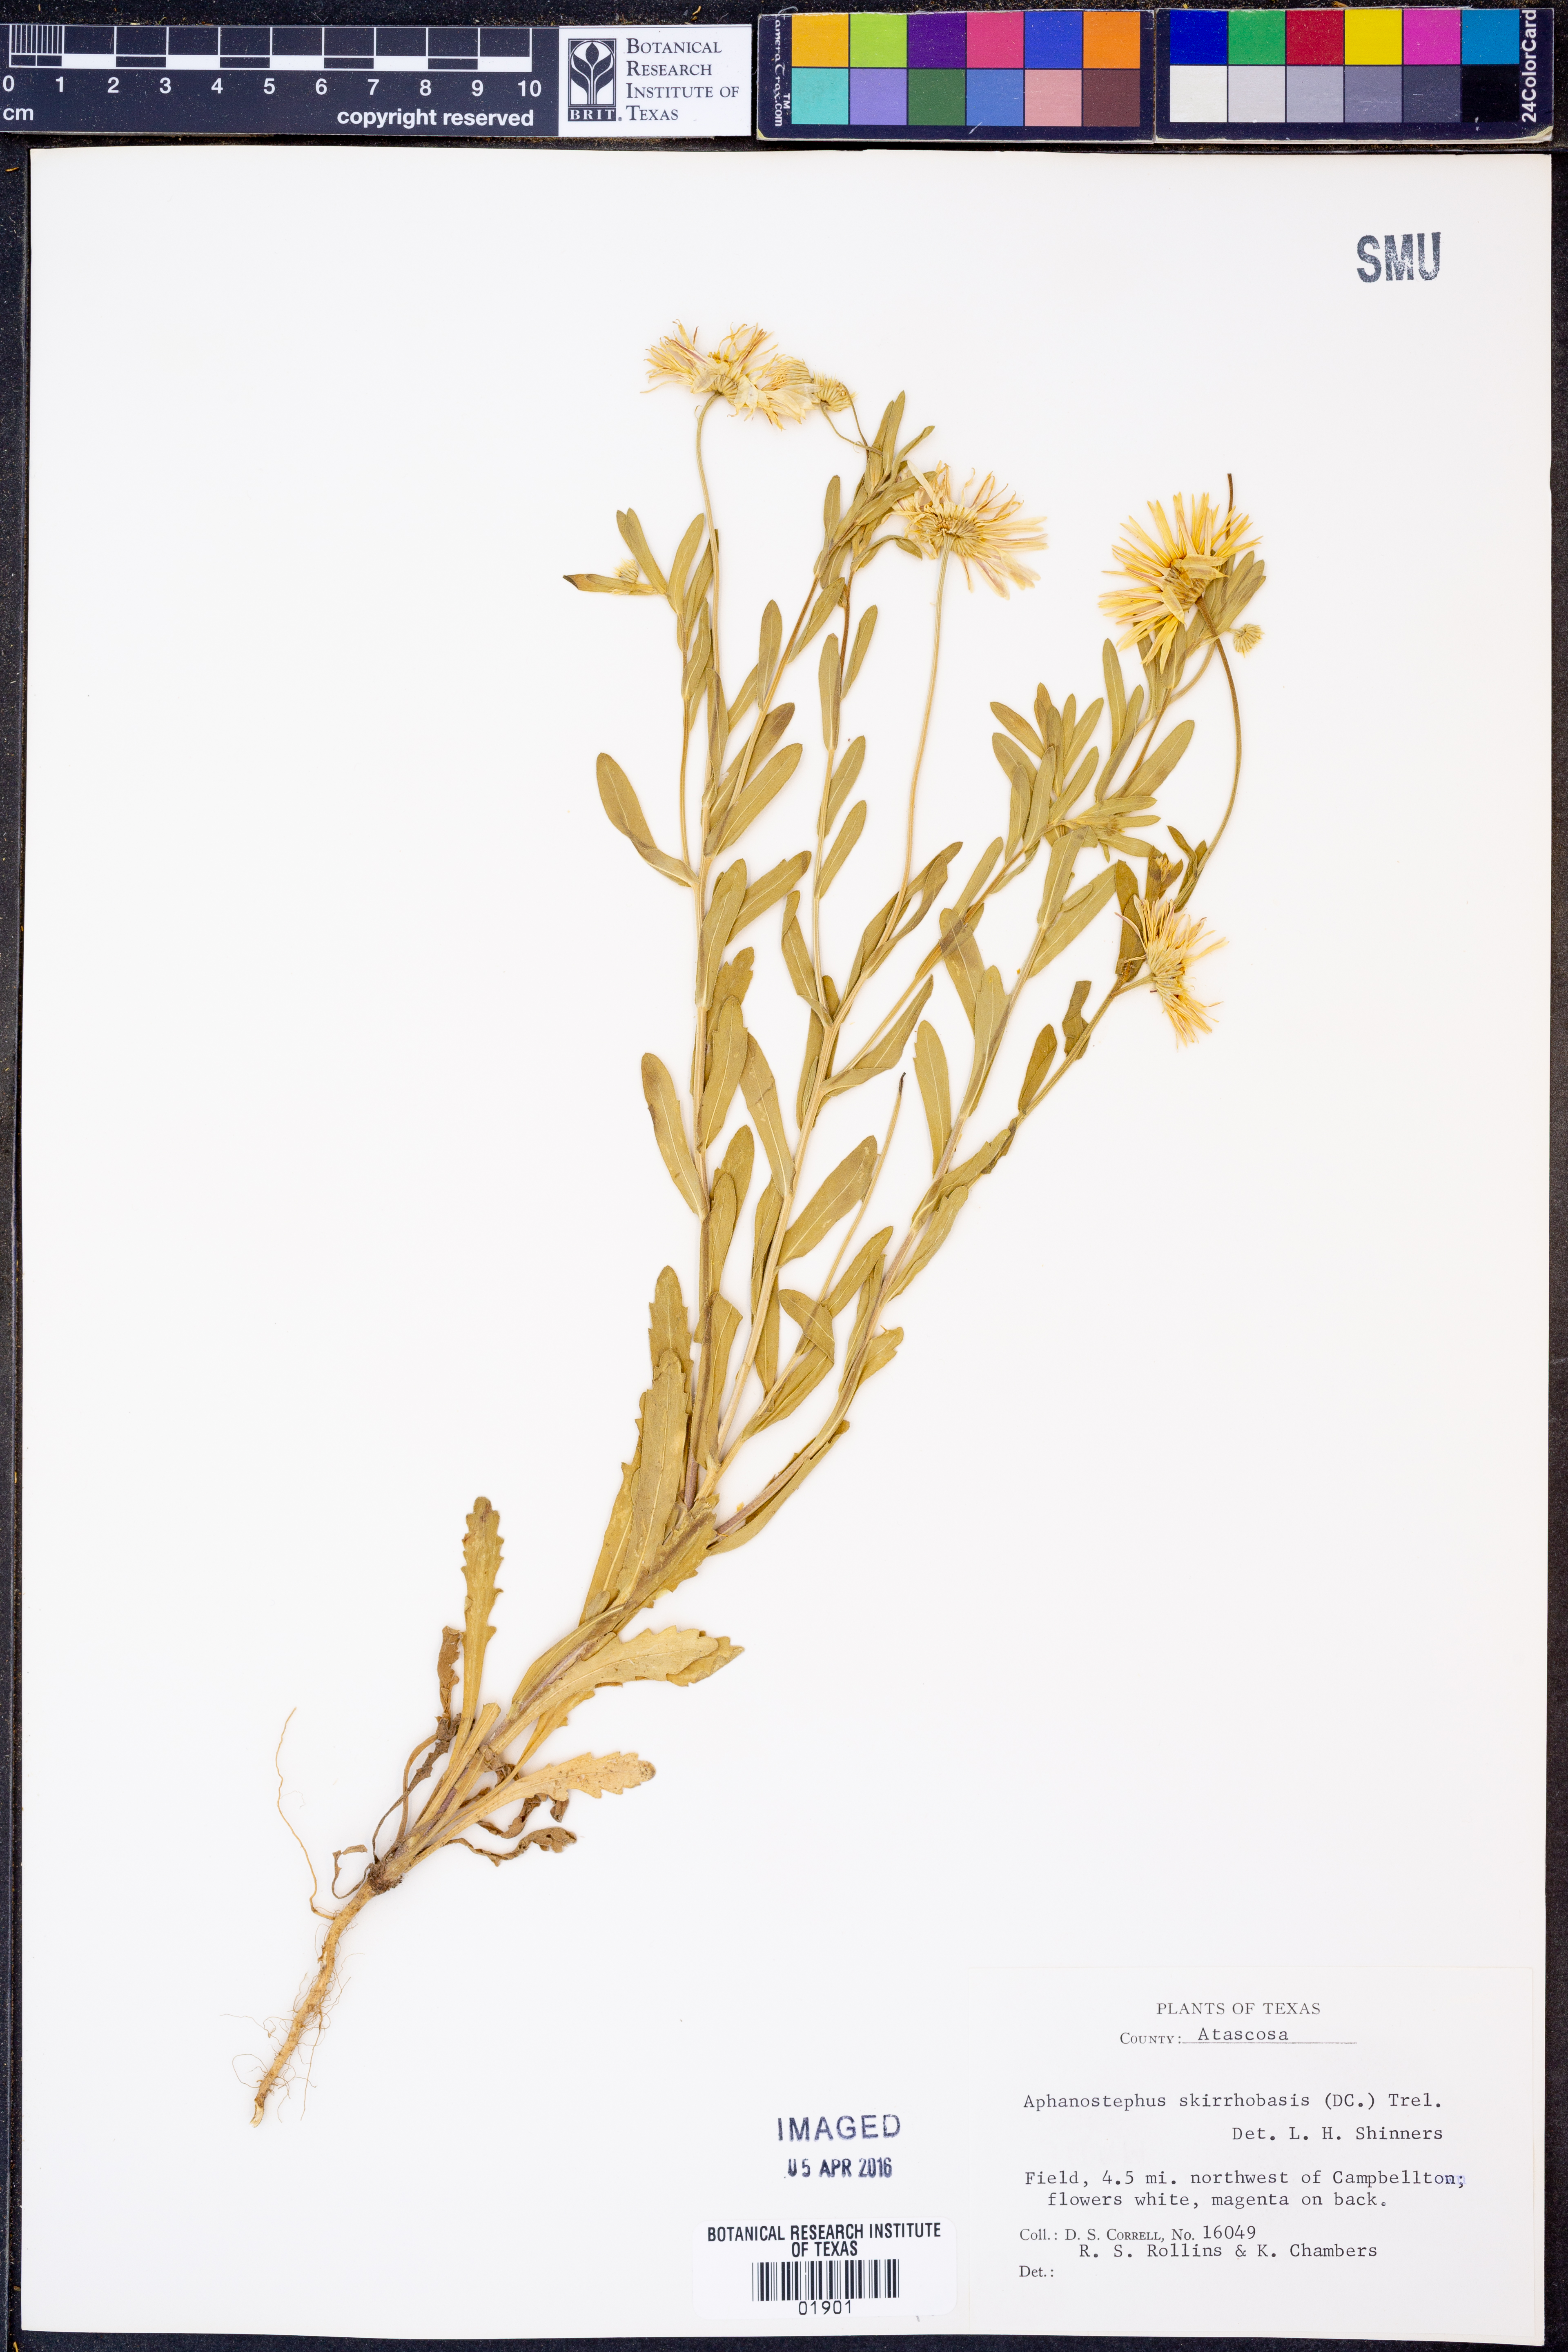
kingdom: Plantae
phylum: Tracheophyta
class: Magnoliopsida
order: Asterales
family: Asteraceae
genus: Aphanostephus
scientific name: Aphanostephus skirrhobasis
